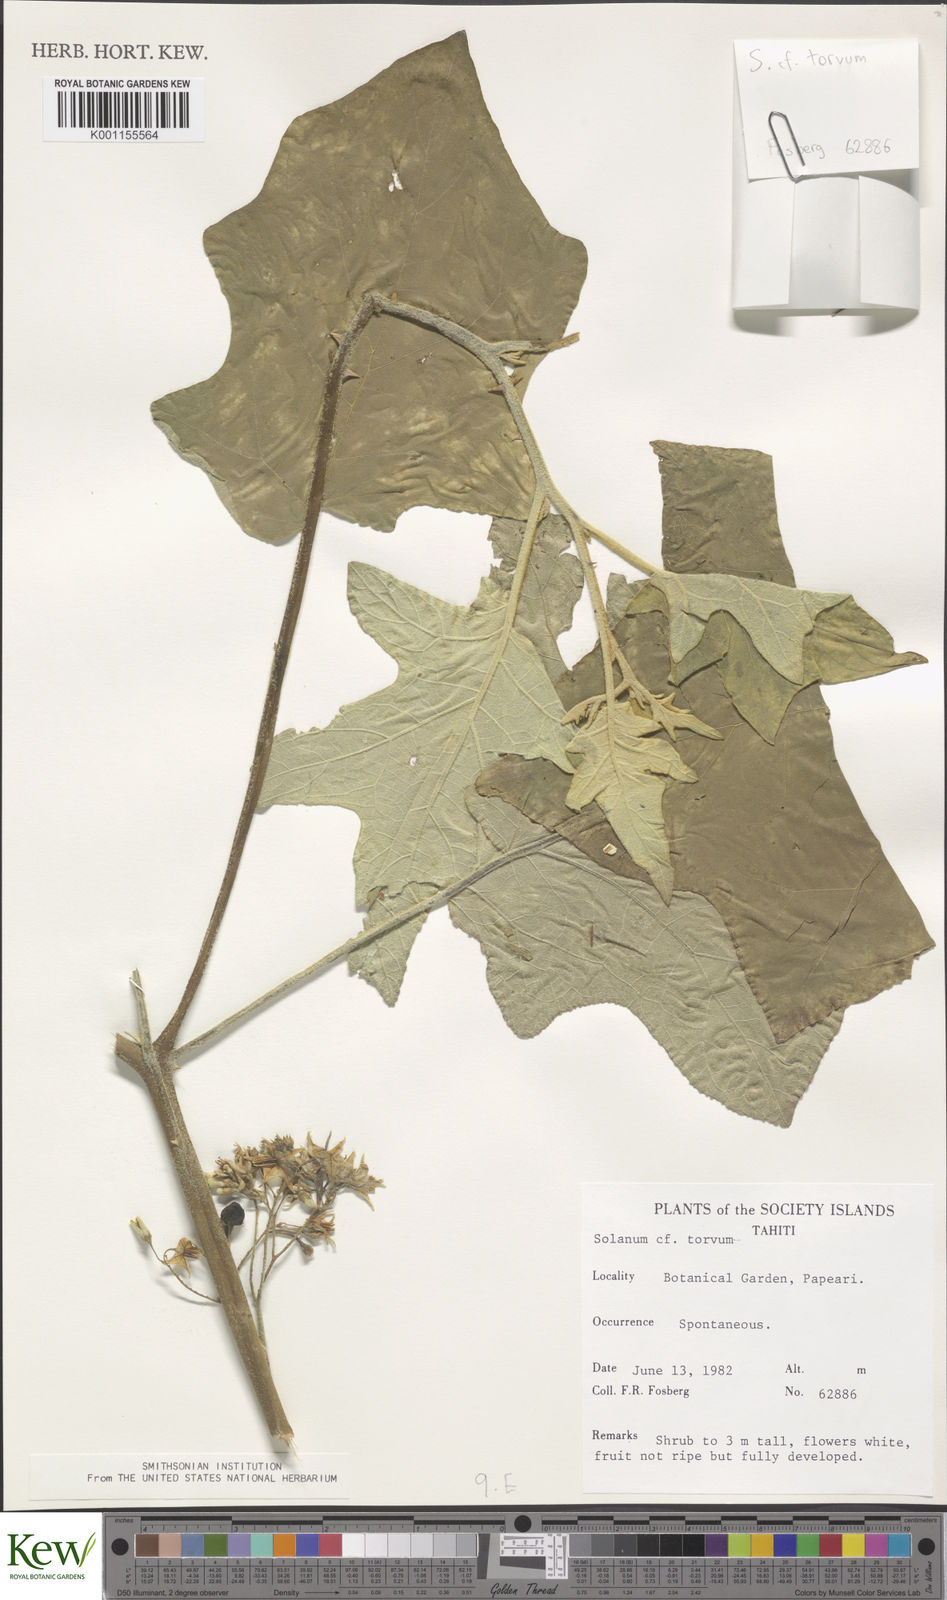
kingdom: Plantae
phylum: Tracheophyta
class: Magnoliopsida
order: Solanales
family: Solanaceae
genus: Solanum
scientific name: Solanum torvum
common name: Turkey berry
